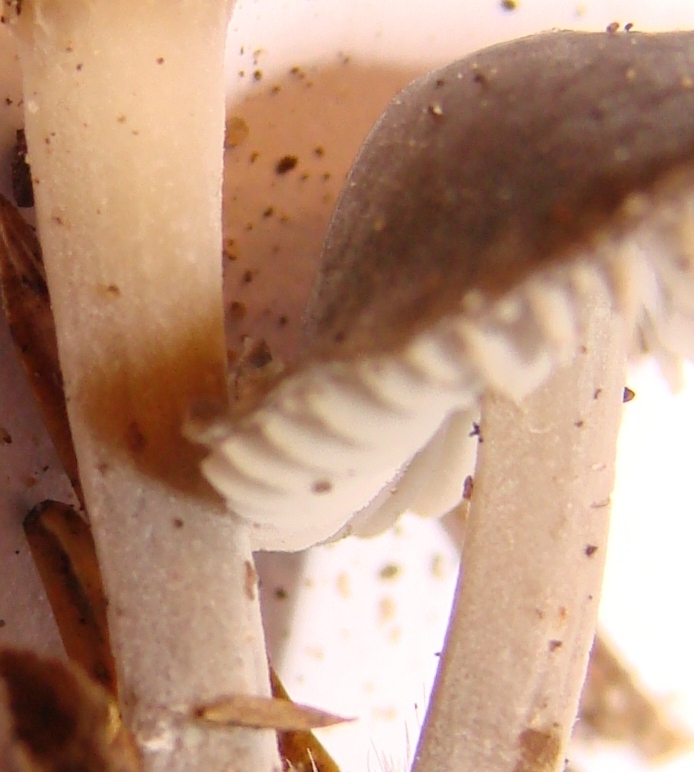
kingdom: Fungi
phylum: Basidiomycota
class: Agaricomycetes
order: Agaricales
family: Tricholomataceae
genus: Mycenella
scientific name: Mycenella salicina
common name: glatsporet dughat
